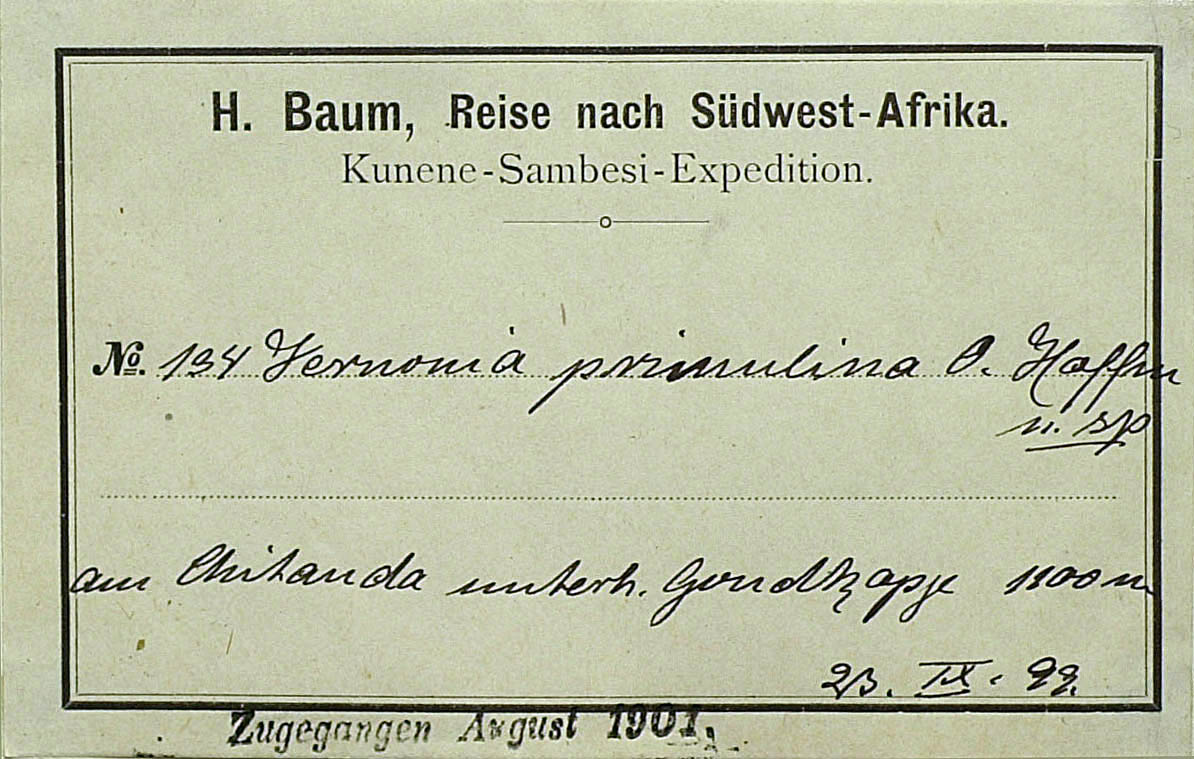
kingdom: Plantae
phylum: Tracheophyta
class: Magnoliopsida
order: Asterales
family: Asteraceae
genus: Linzia
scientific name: Linzia gerberiformis
